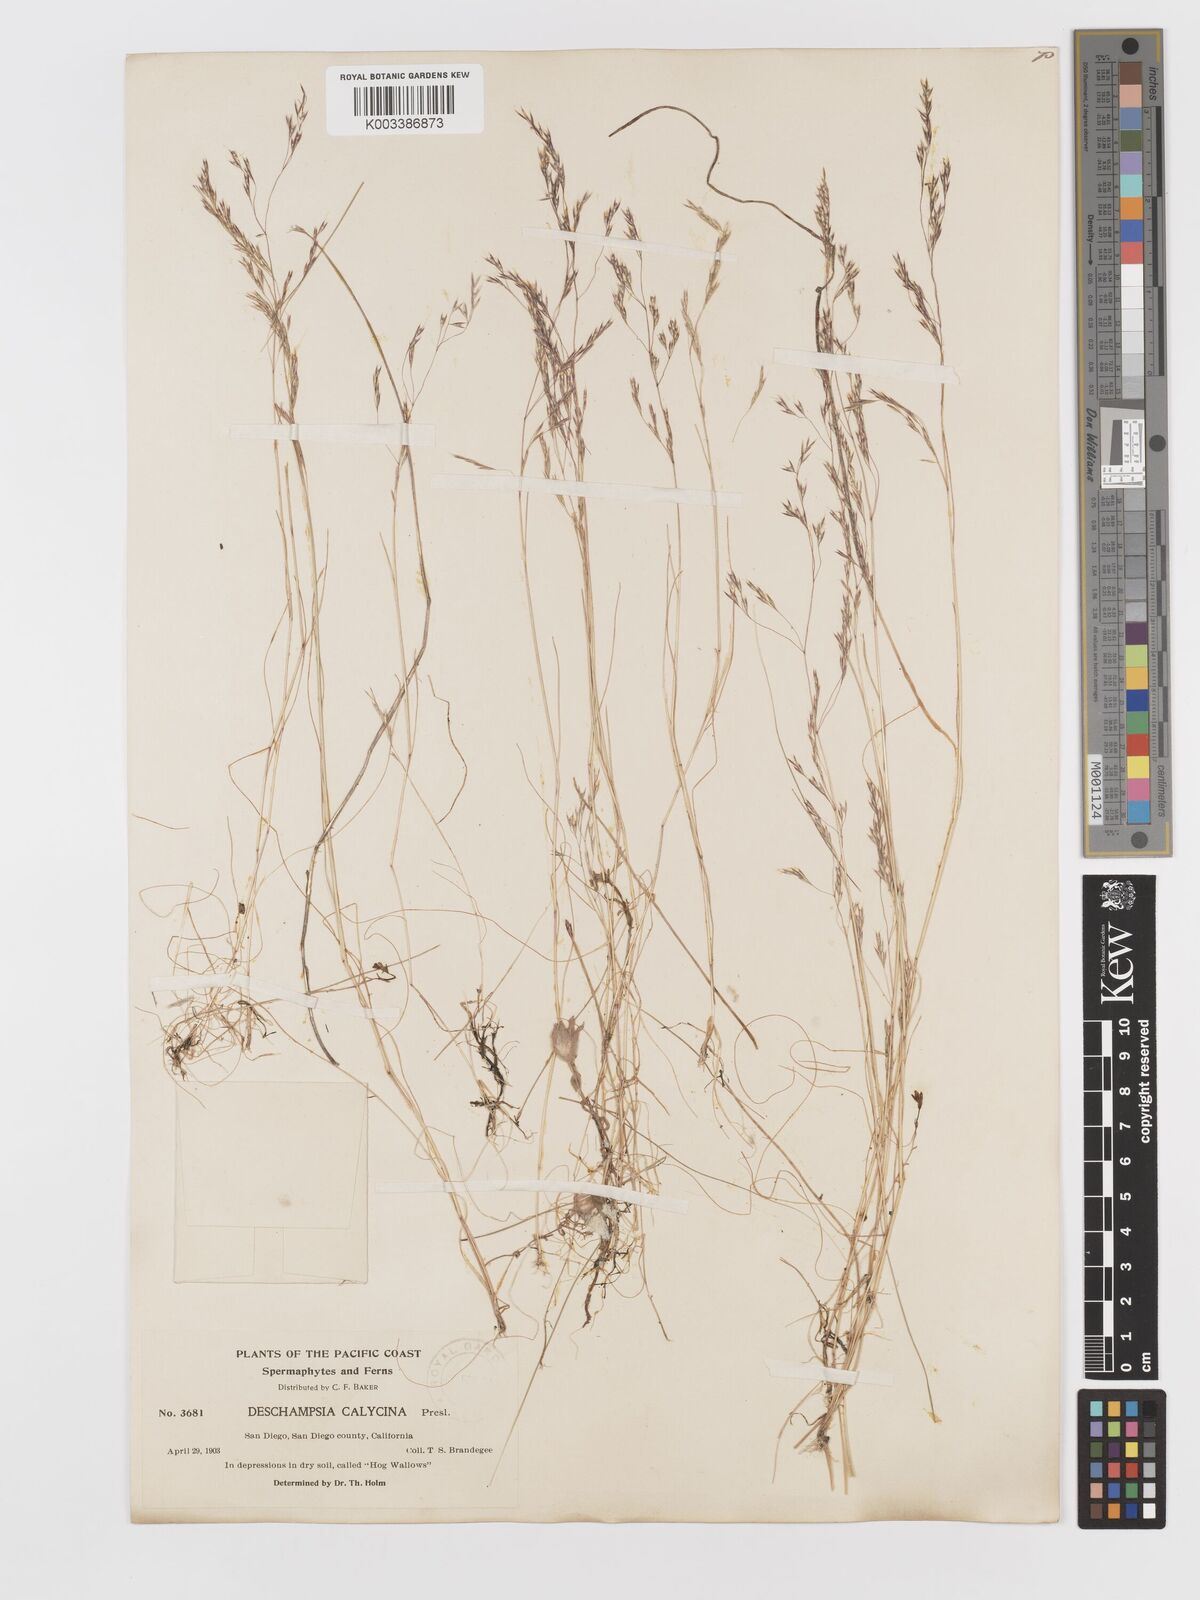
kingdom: Plantae
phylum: Tracheophyta
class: Liliopsida
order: Poales
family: Poaceae
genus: Deschampsia
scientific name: Deschampsia danthonioides
